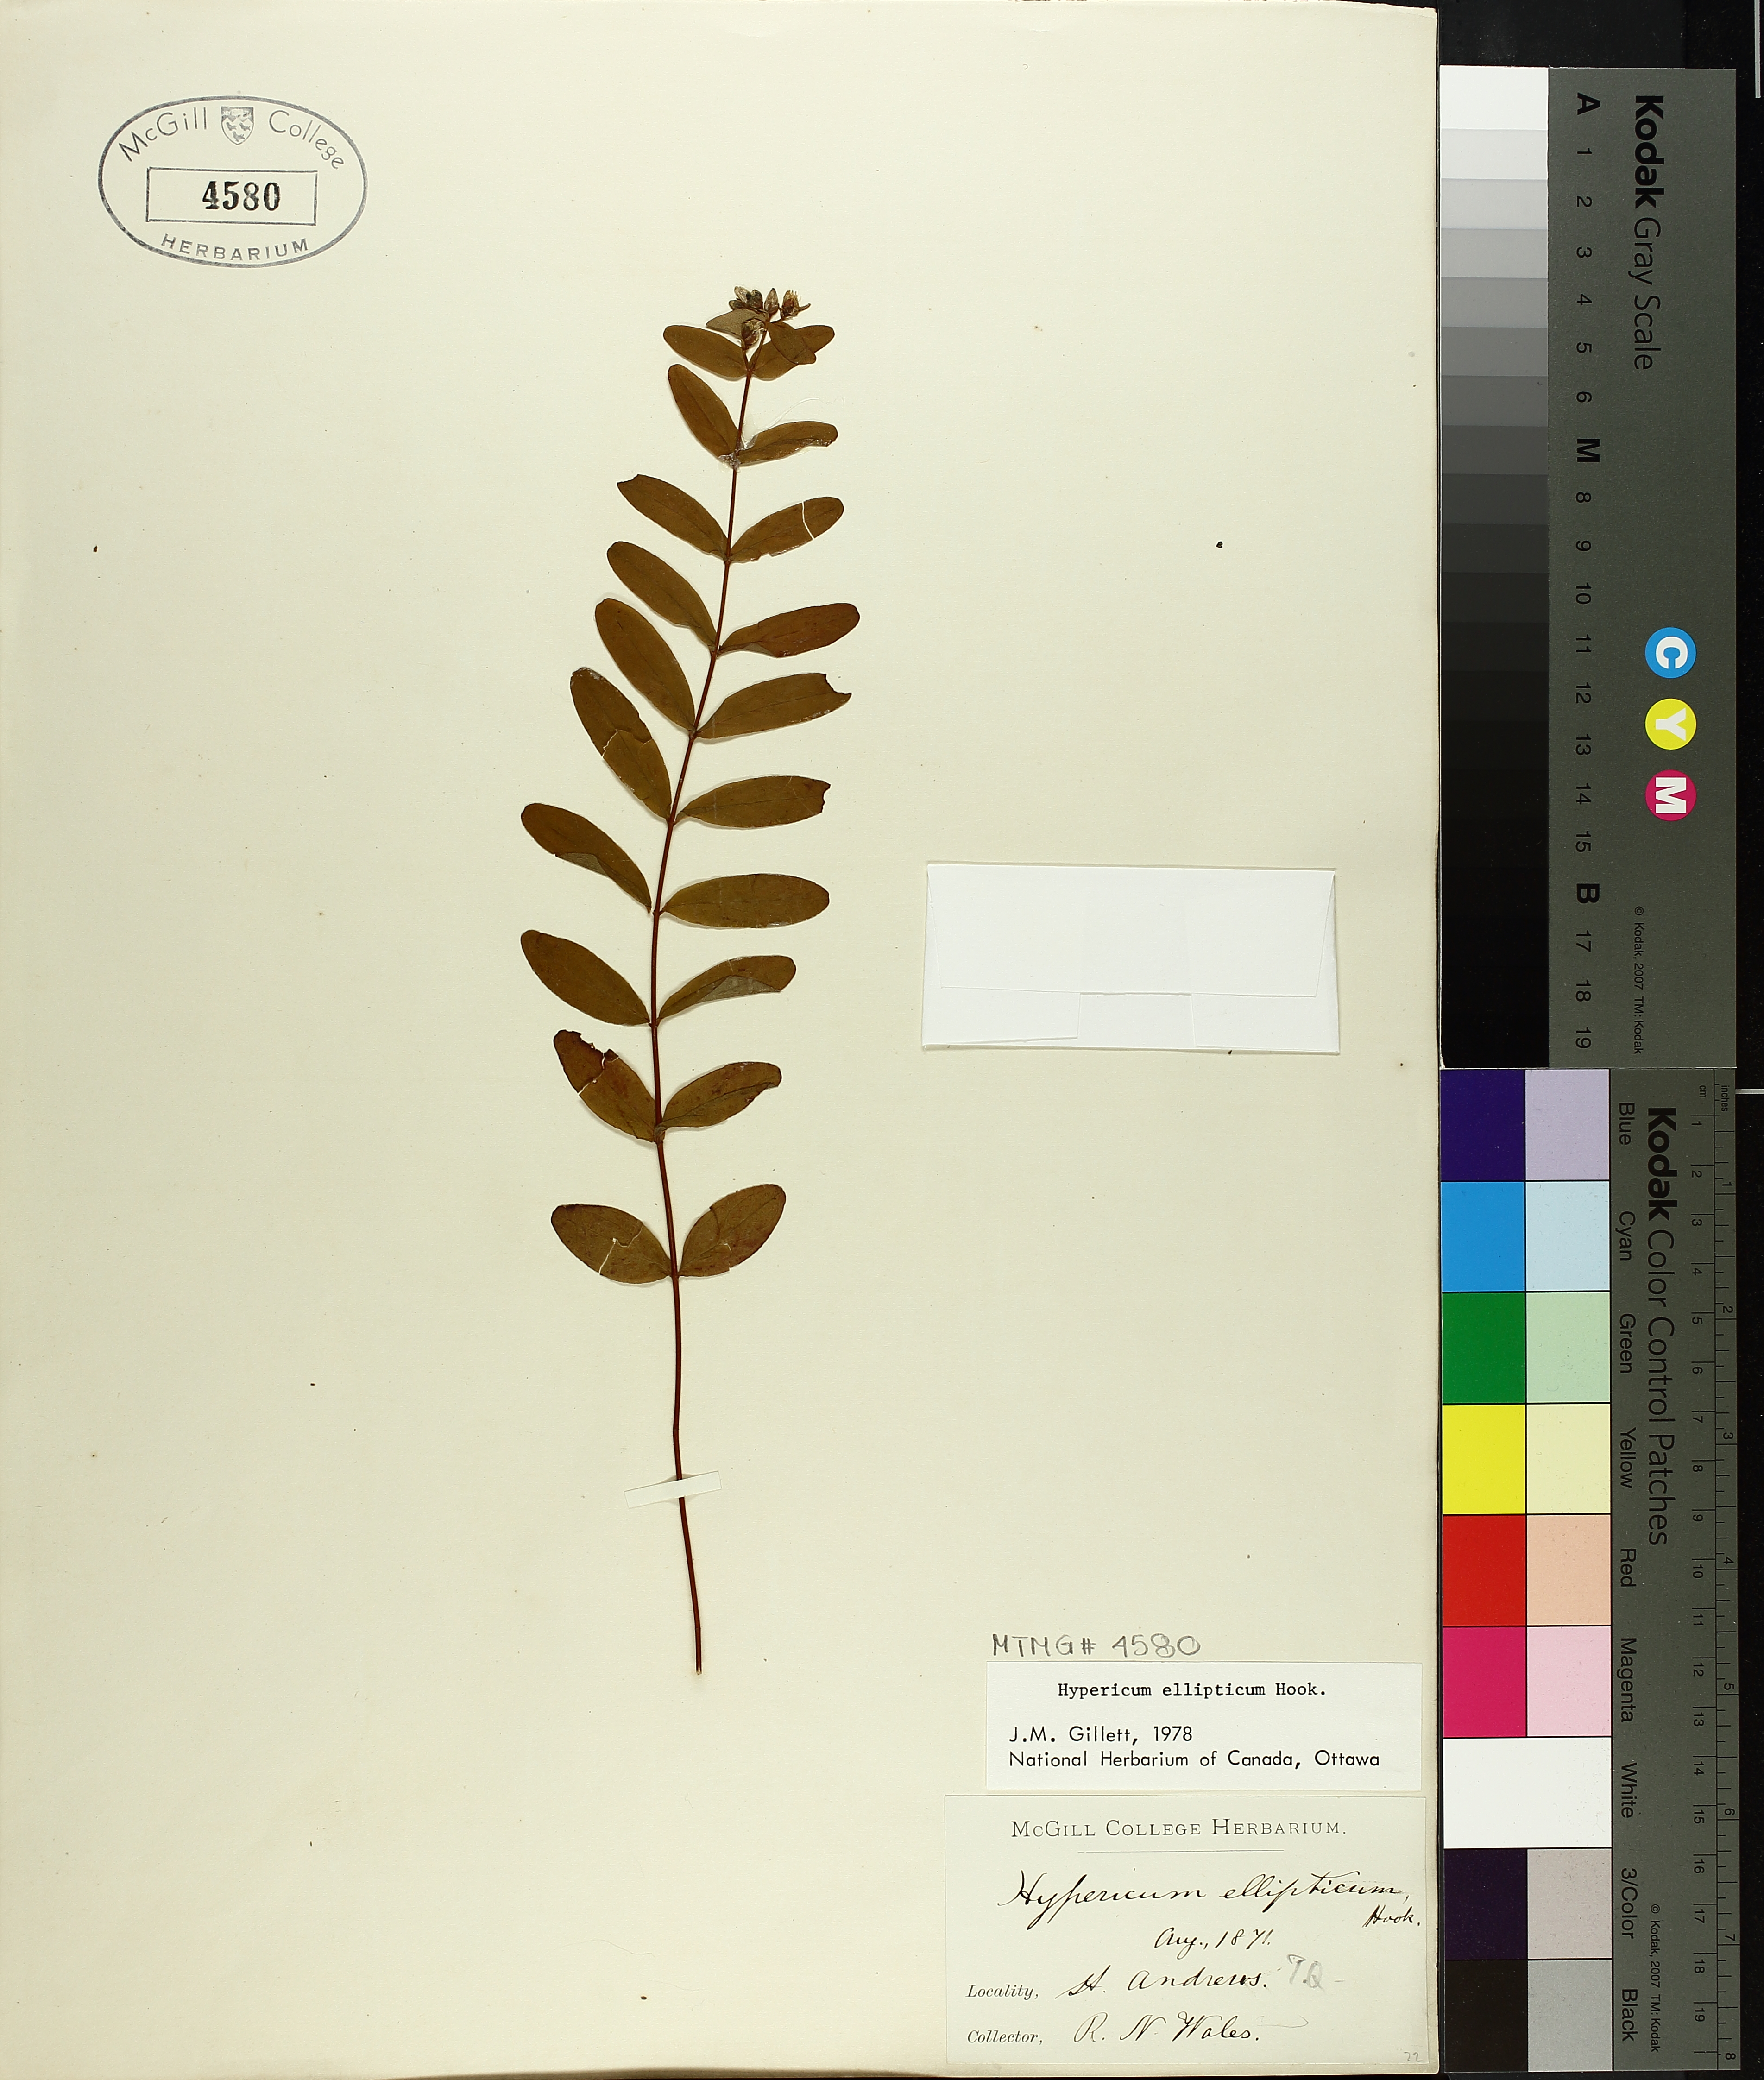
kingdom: Plantae
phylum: Tracheophyta
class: Magnoliopsida
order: Malpighiales
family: Hypericaceae
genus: Hypericum
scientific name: Hypericum ellipticum
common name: Elliptic st. john's-wort
